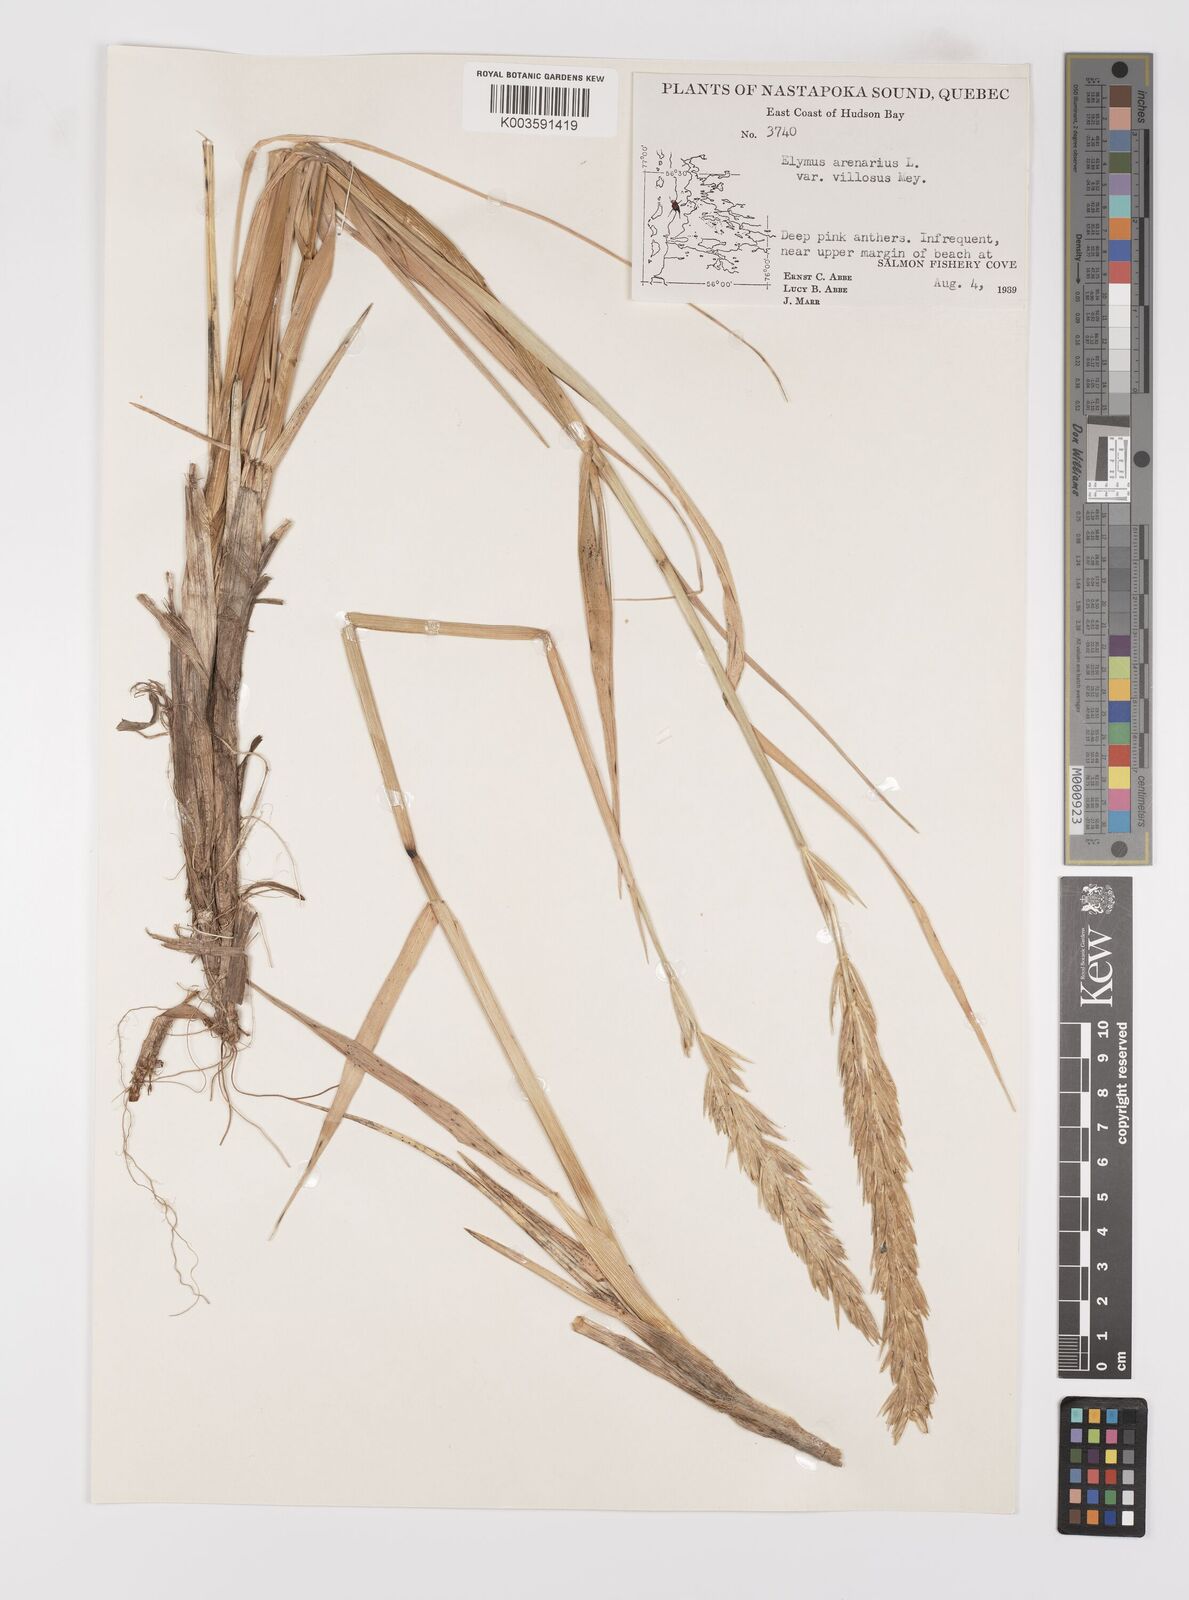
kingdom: Plantae
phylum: Tracheophyta
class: Liliopsida
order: Poales
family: Poaceae
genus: Leymus
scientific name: Leymus mollis
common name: American dune grass
